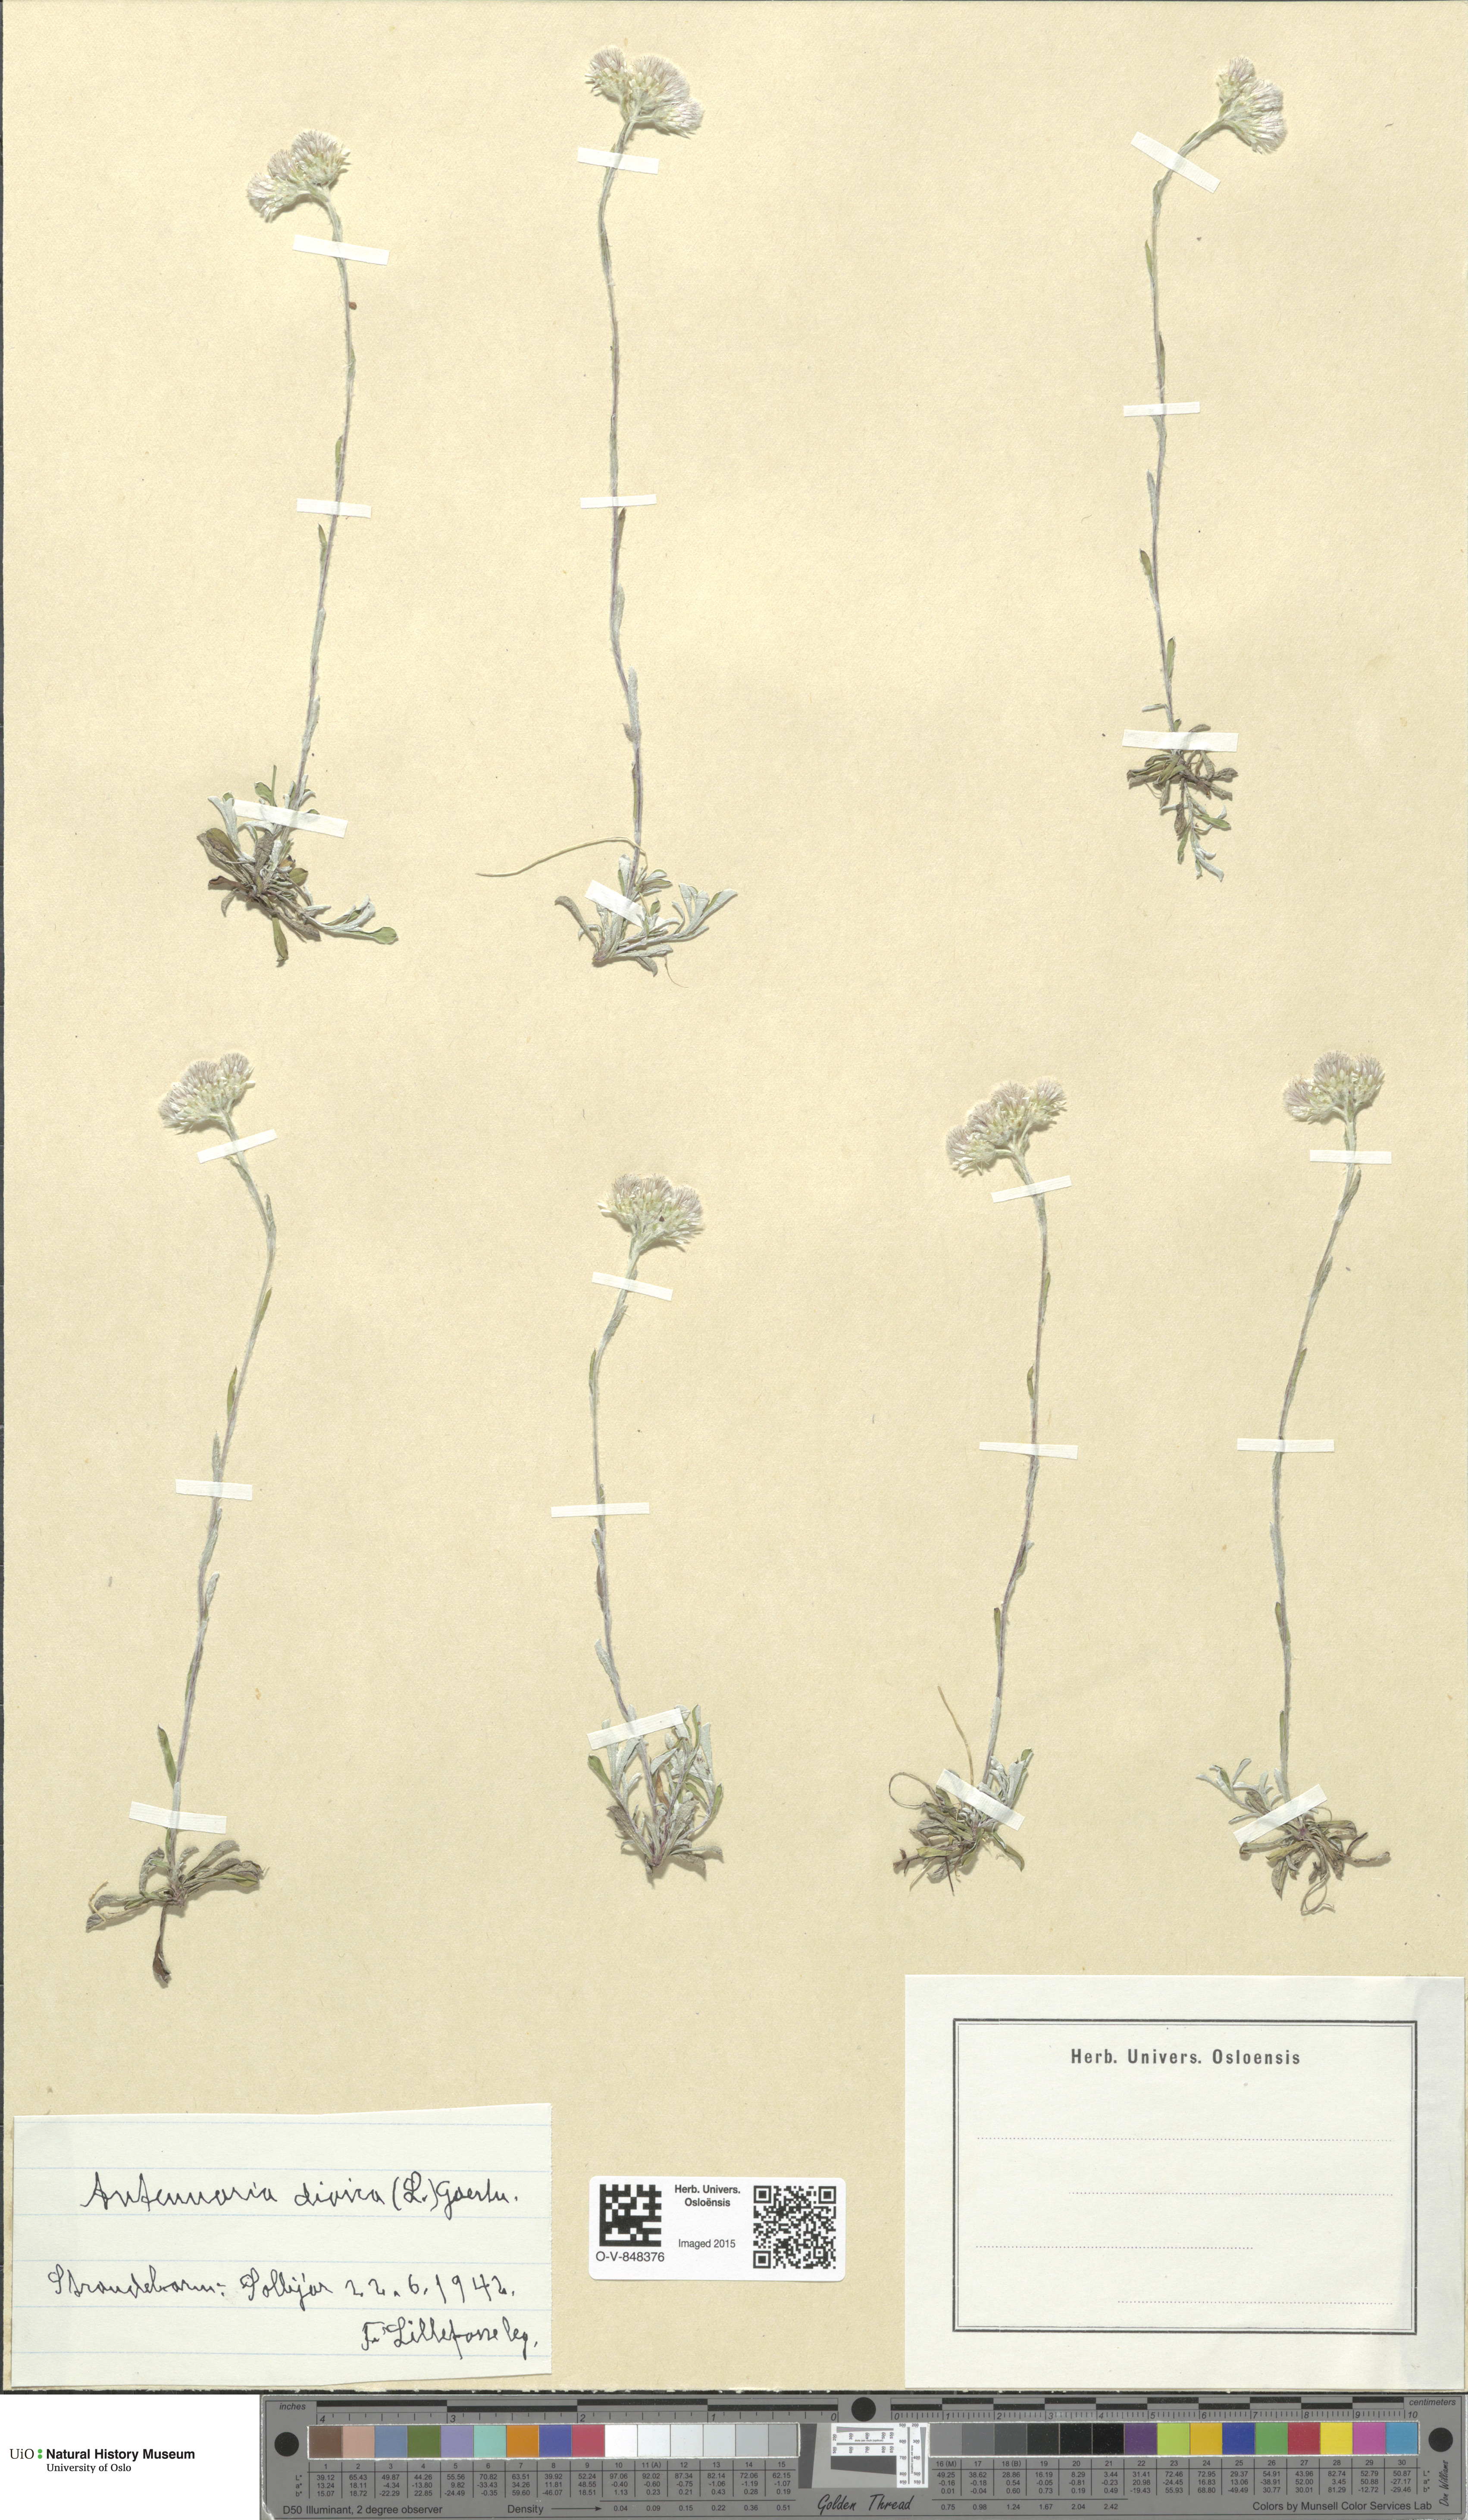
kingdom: Plantae
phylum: Tracheophyta
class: Magnoliopsida
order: Asterales
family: Asteraceae
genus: Antennaria
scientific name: Antennaria dioica
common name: Mountain everlasting
